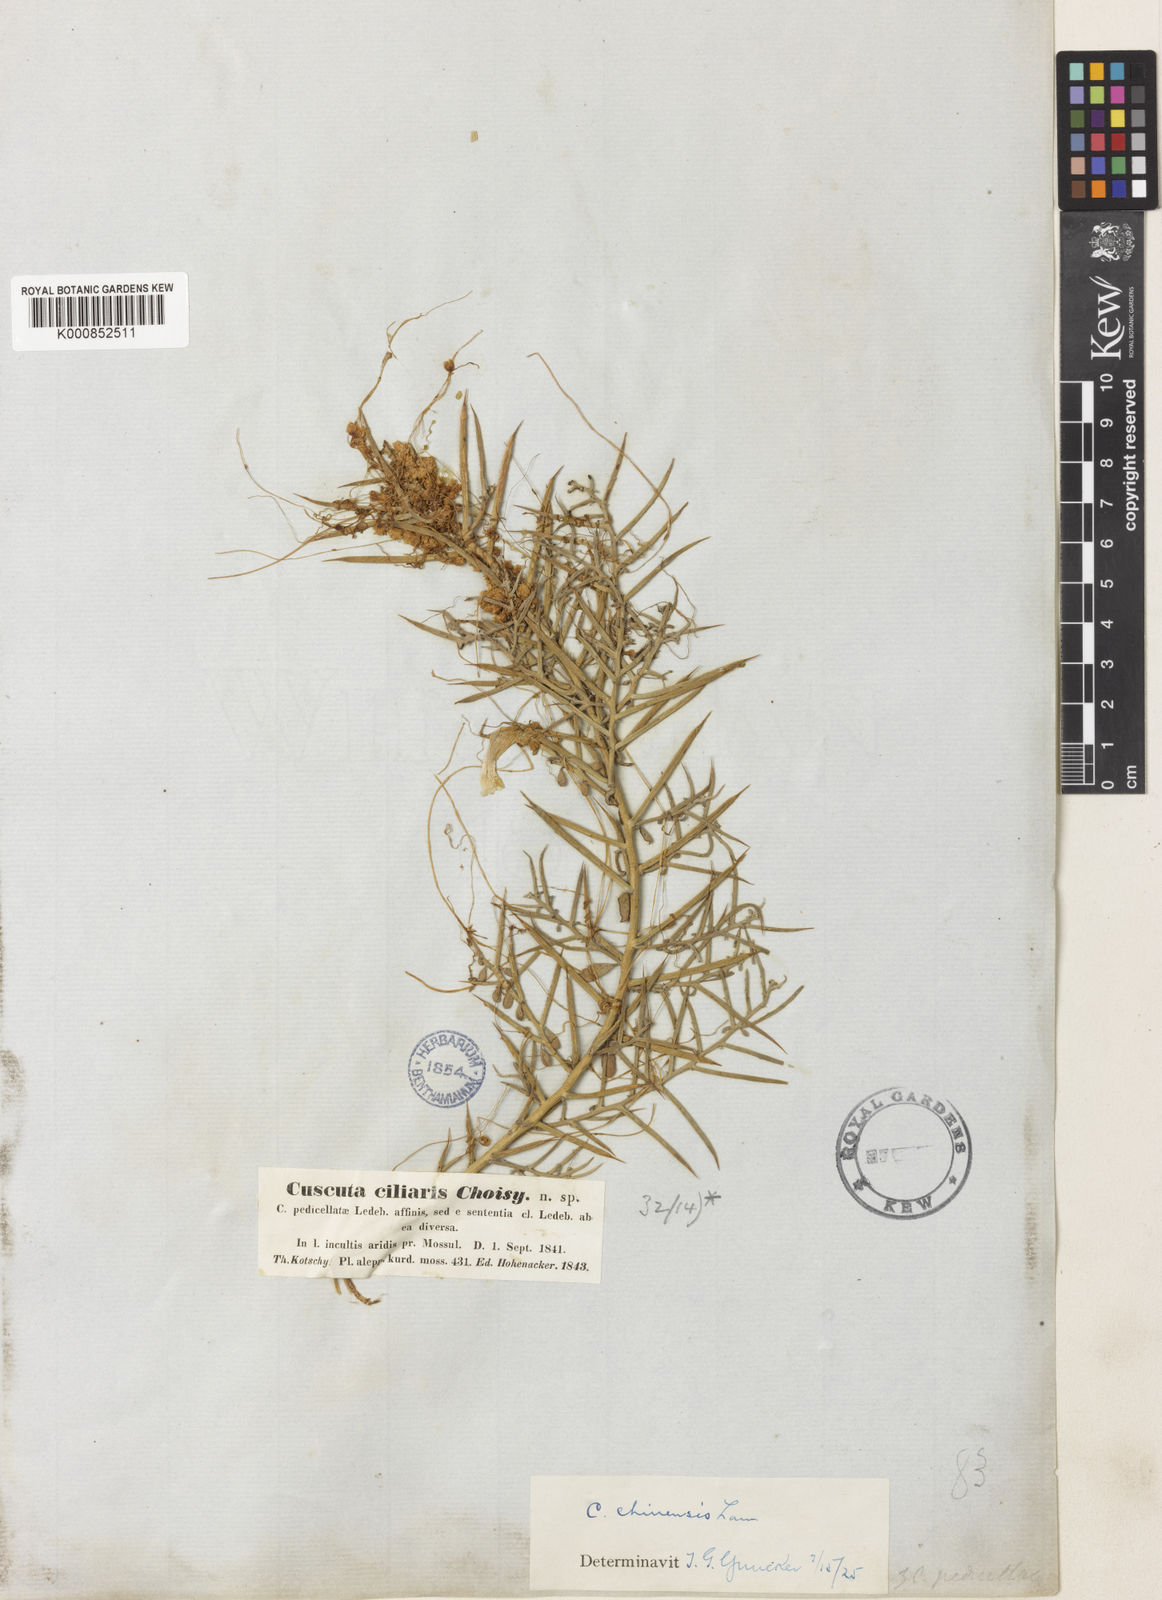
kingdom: Plantae
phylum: Tracheophyta
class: Magnoliopsida
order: Solanales
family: Convolvulaceae
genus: Cuscuta
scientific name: Cuscuta chinensis
